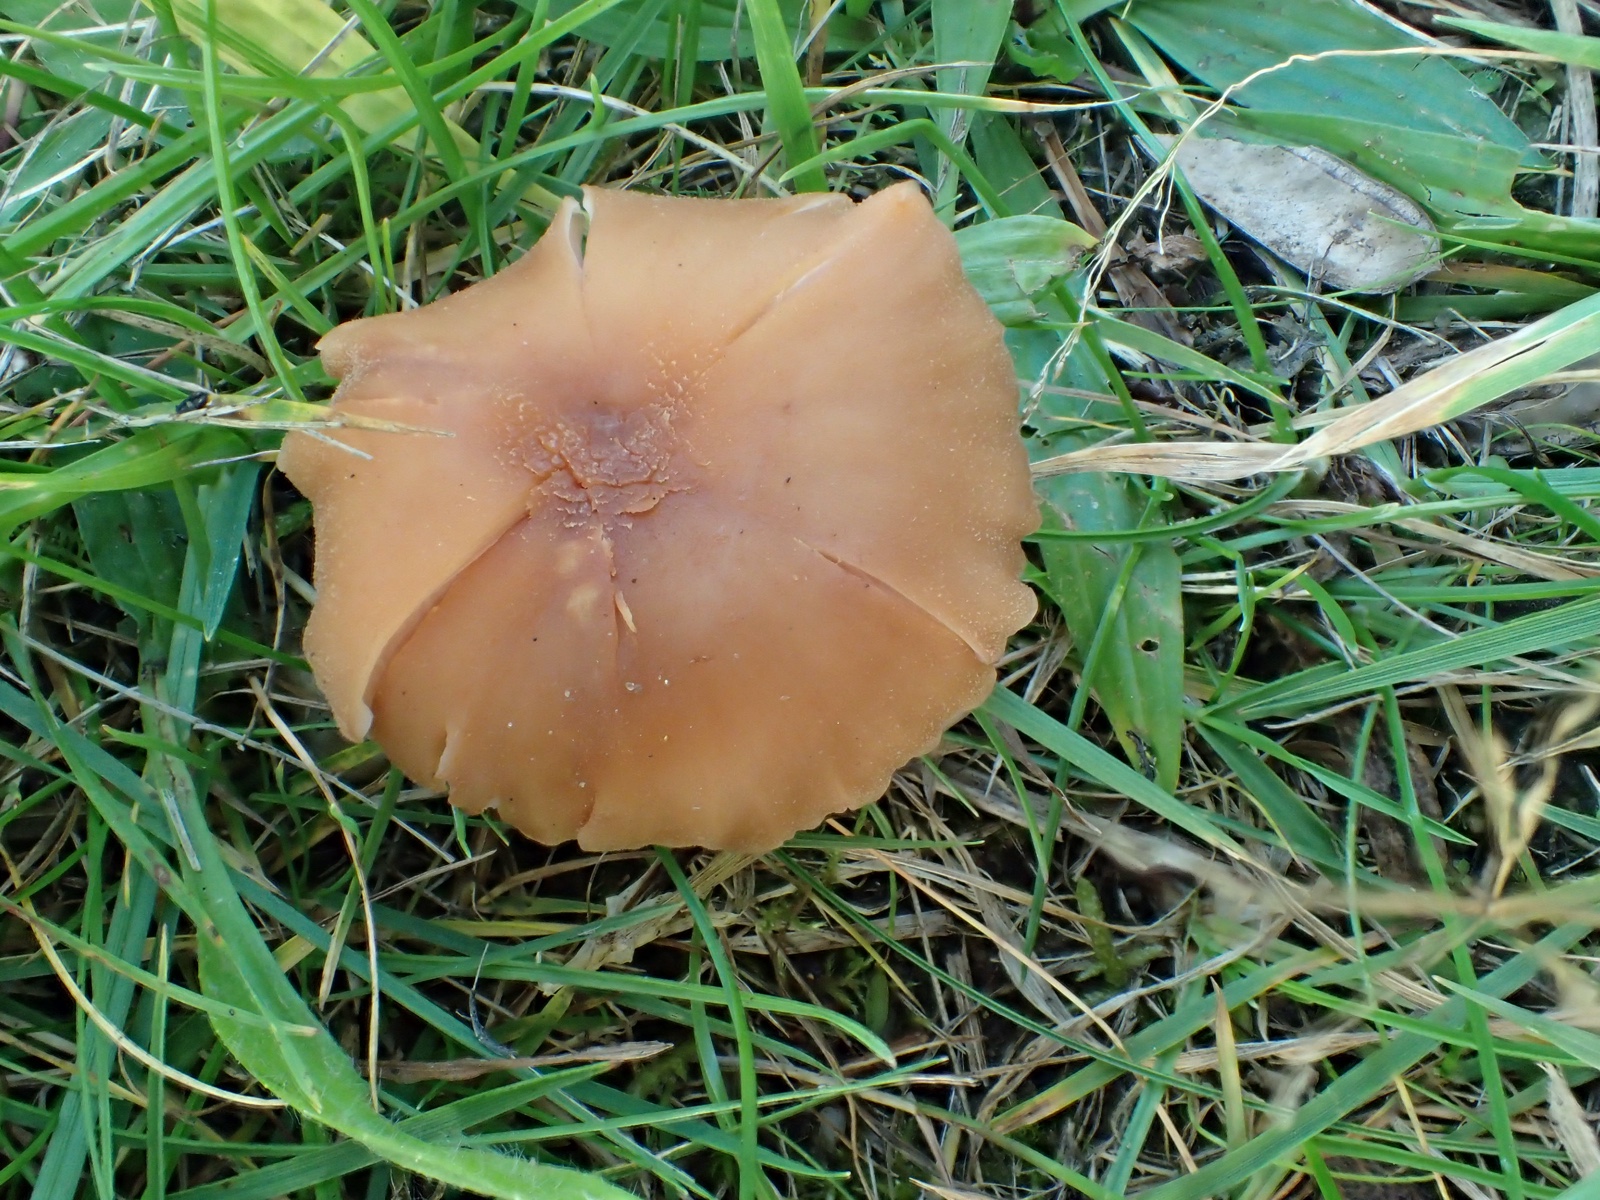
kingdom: Fungi
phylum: Basidiomycota
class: Agaricomycetes
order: Agaricales
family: Hydnangiaceae
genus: Laccaria
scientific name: Laccaria bicolor
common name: tvefarvet ametysthat
